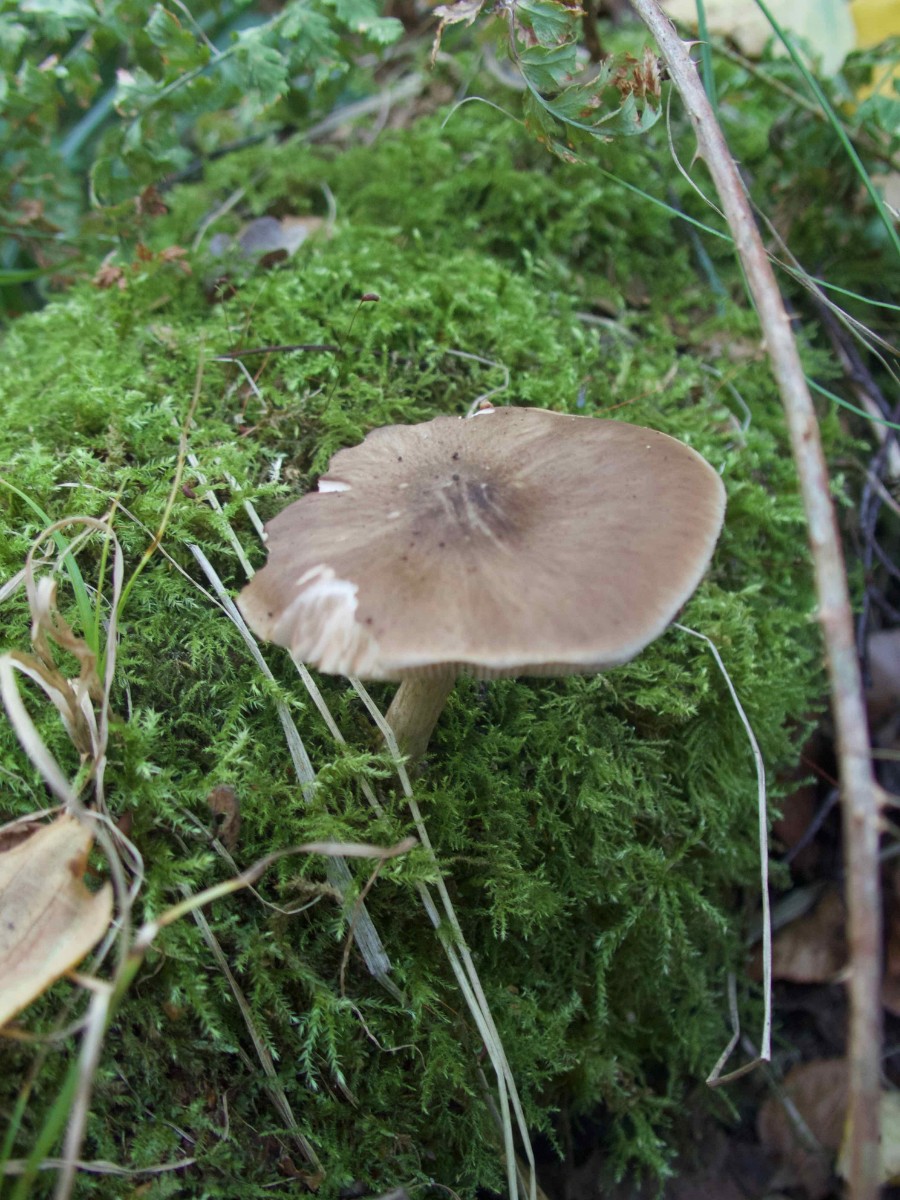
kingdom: Fungi
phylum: Basidiomycota
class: Agaricomycetes
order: Agaricales
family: Pluteaceae
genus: Pluteus
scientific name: Pluteus cervinus
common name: sodfarvet skærmhat
